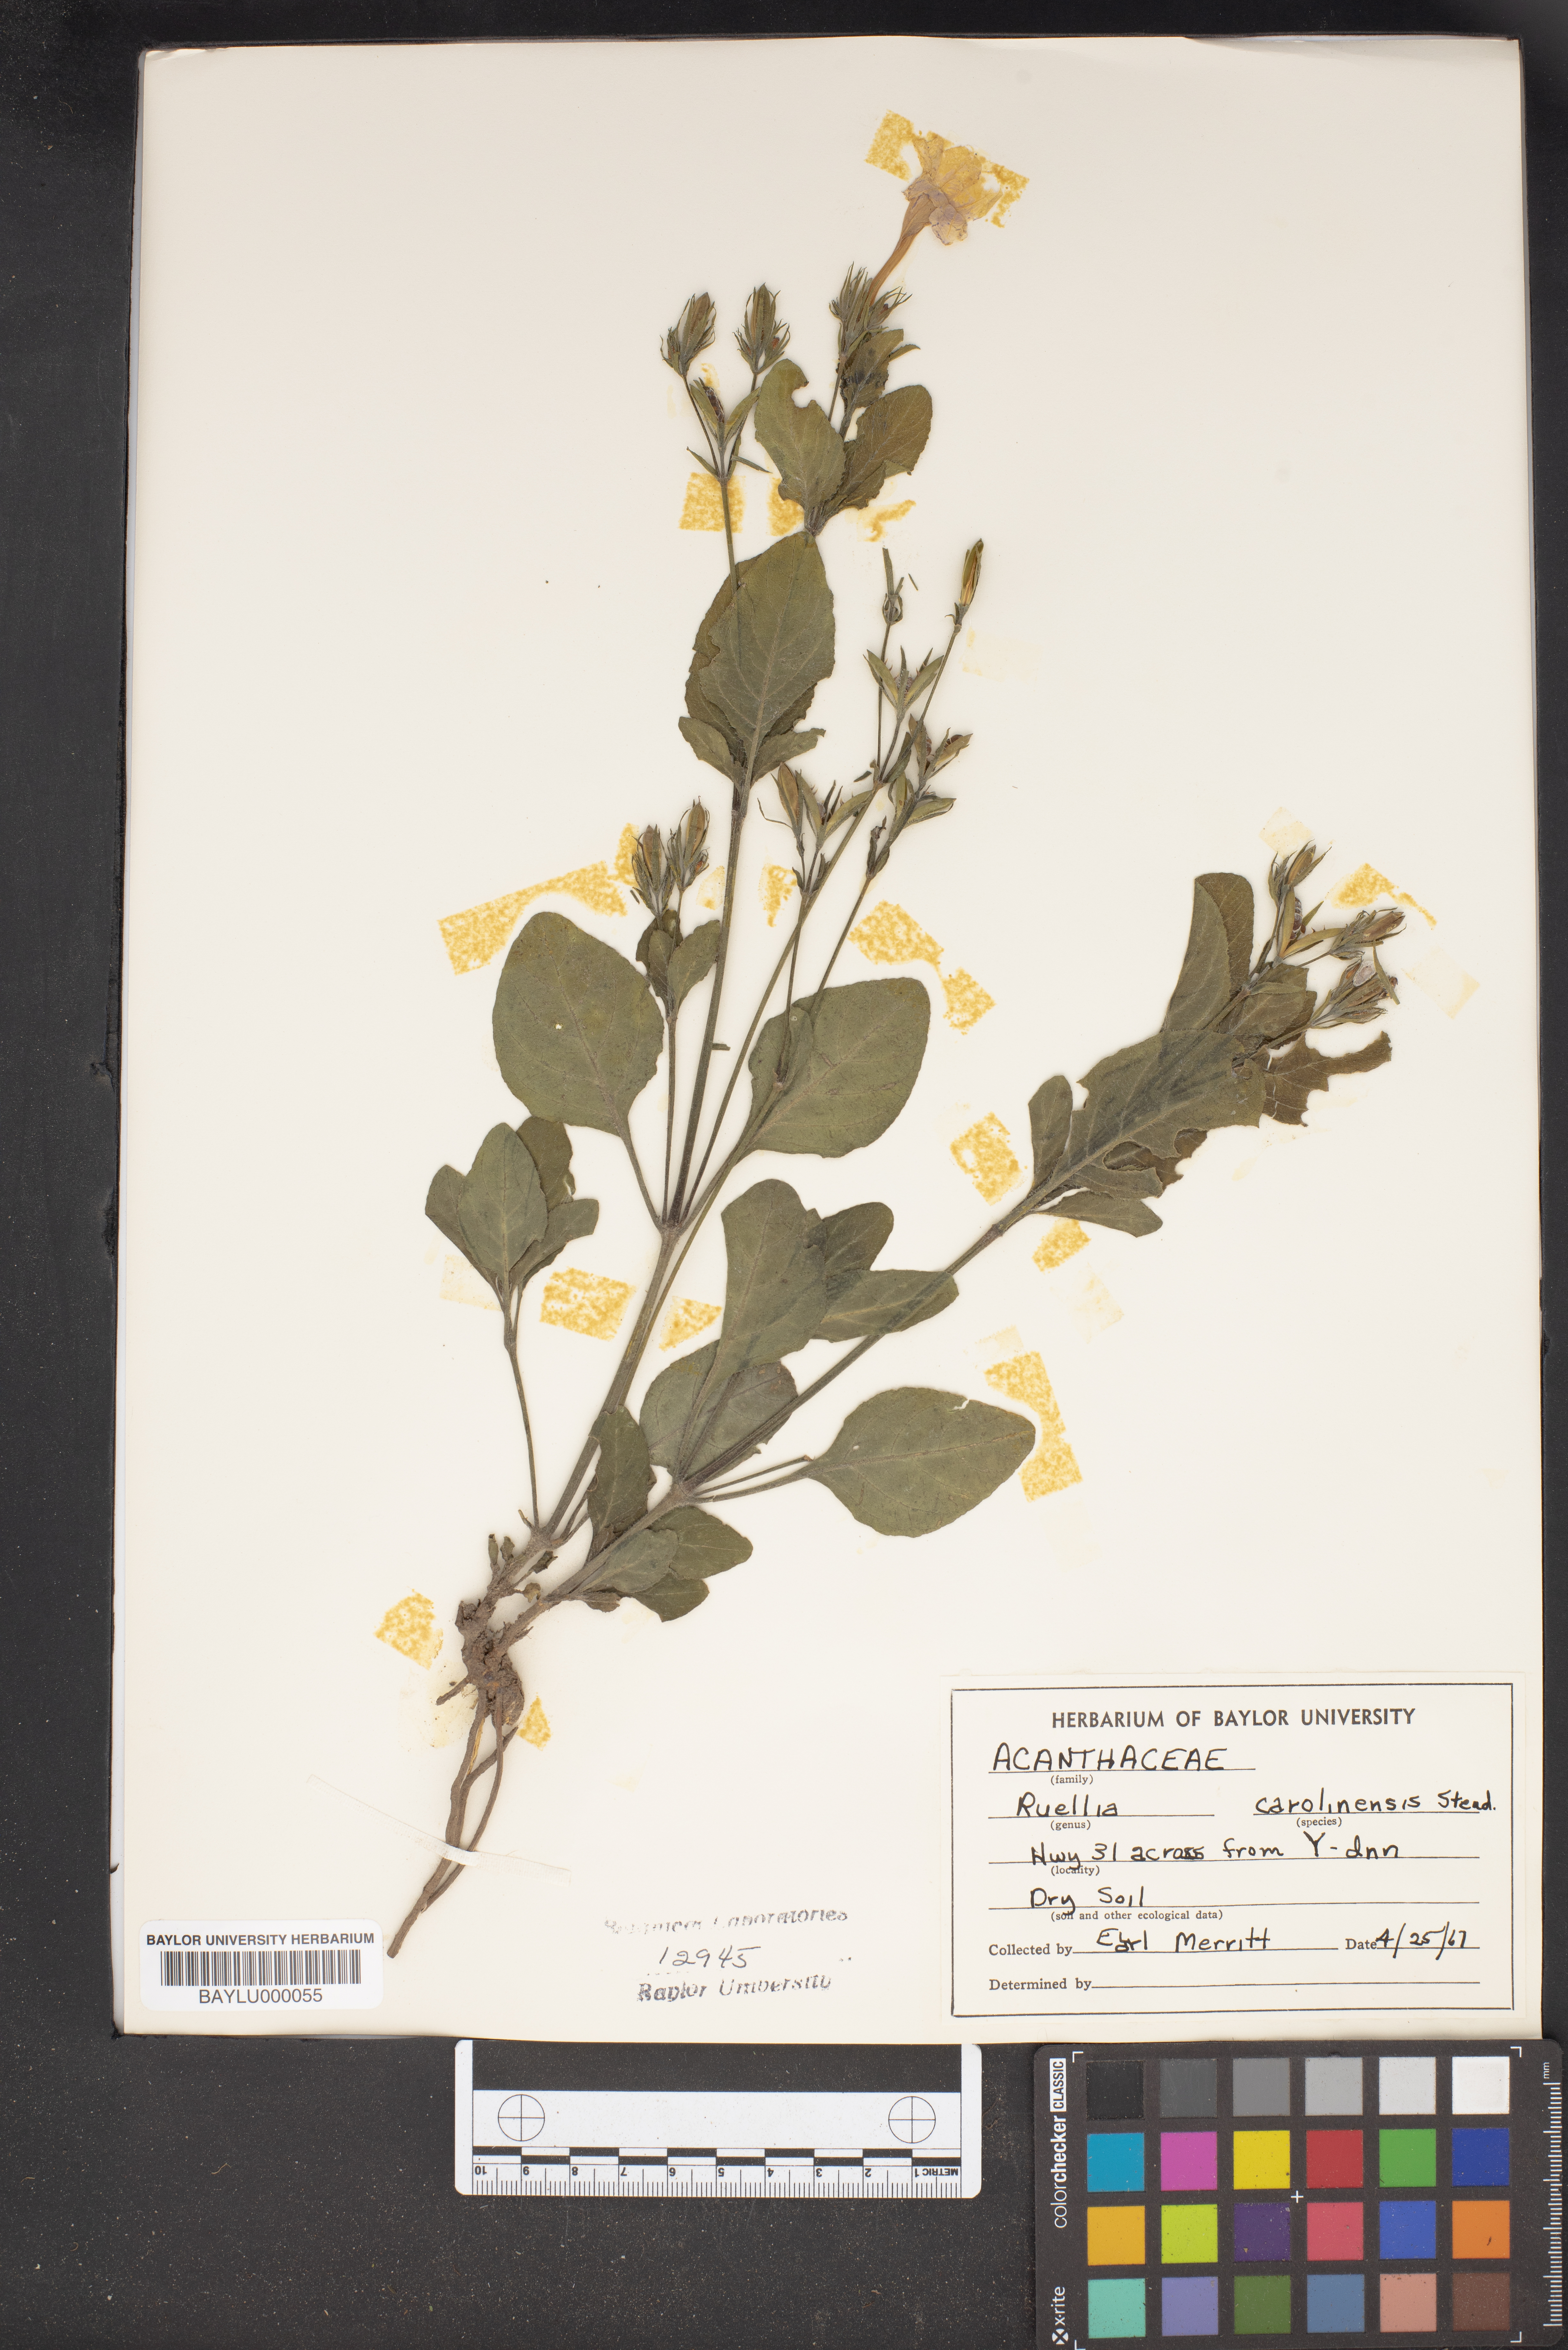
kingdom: Plantae
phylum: Tracheophyta
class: Magnoliopsida
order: Lamiales
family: Acanthaceae
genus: Ruellia
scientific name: Ruellia caroliniensis
